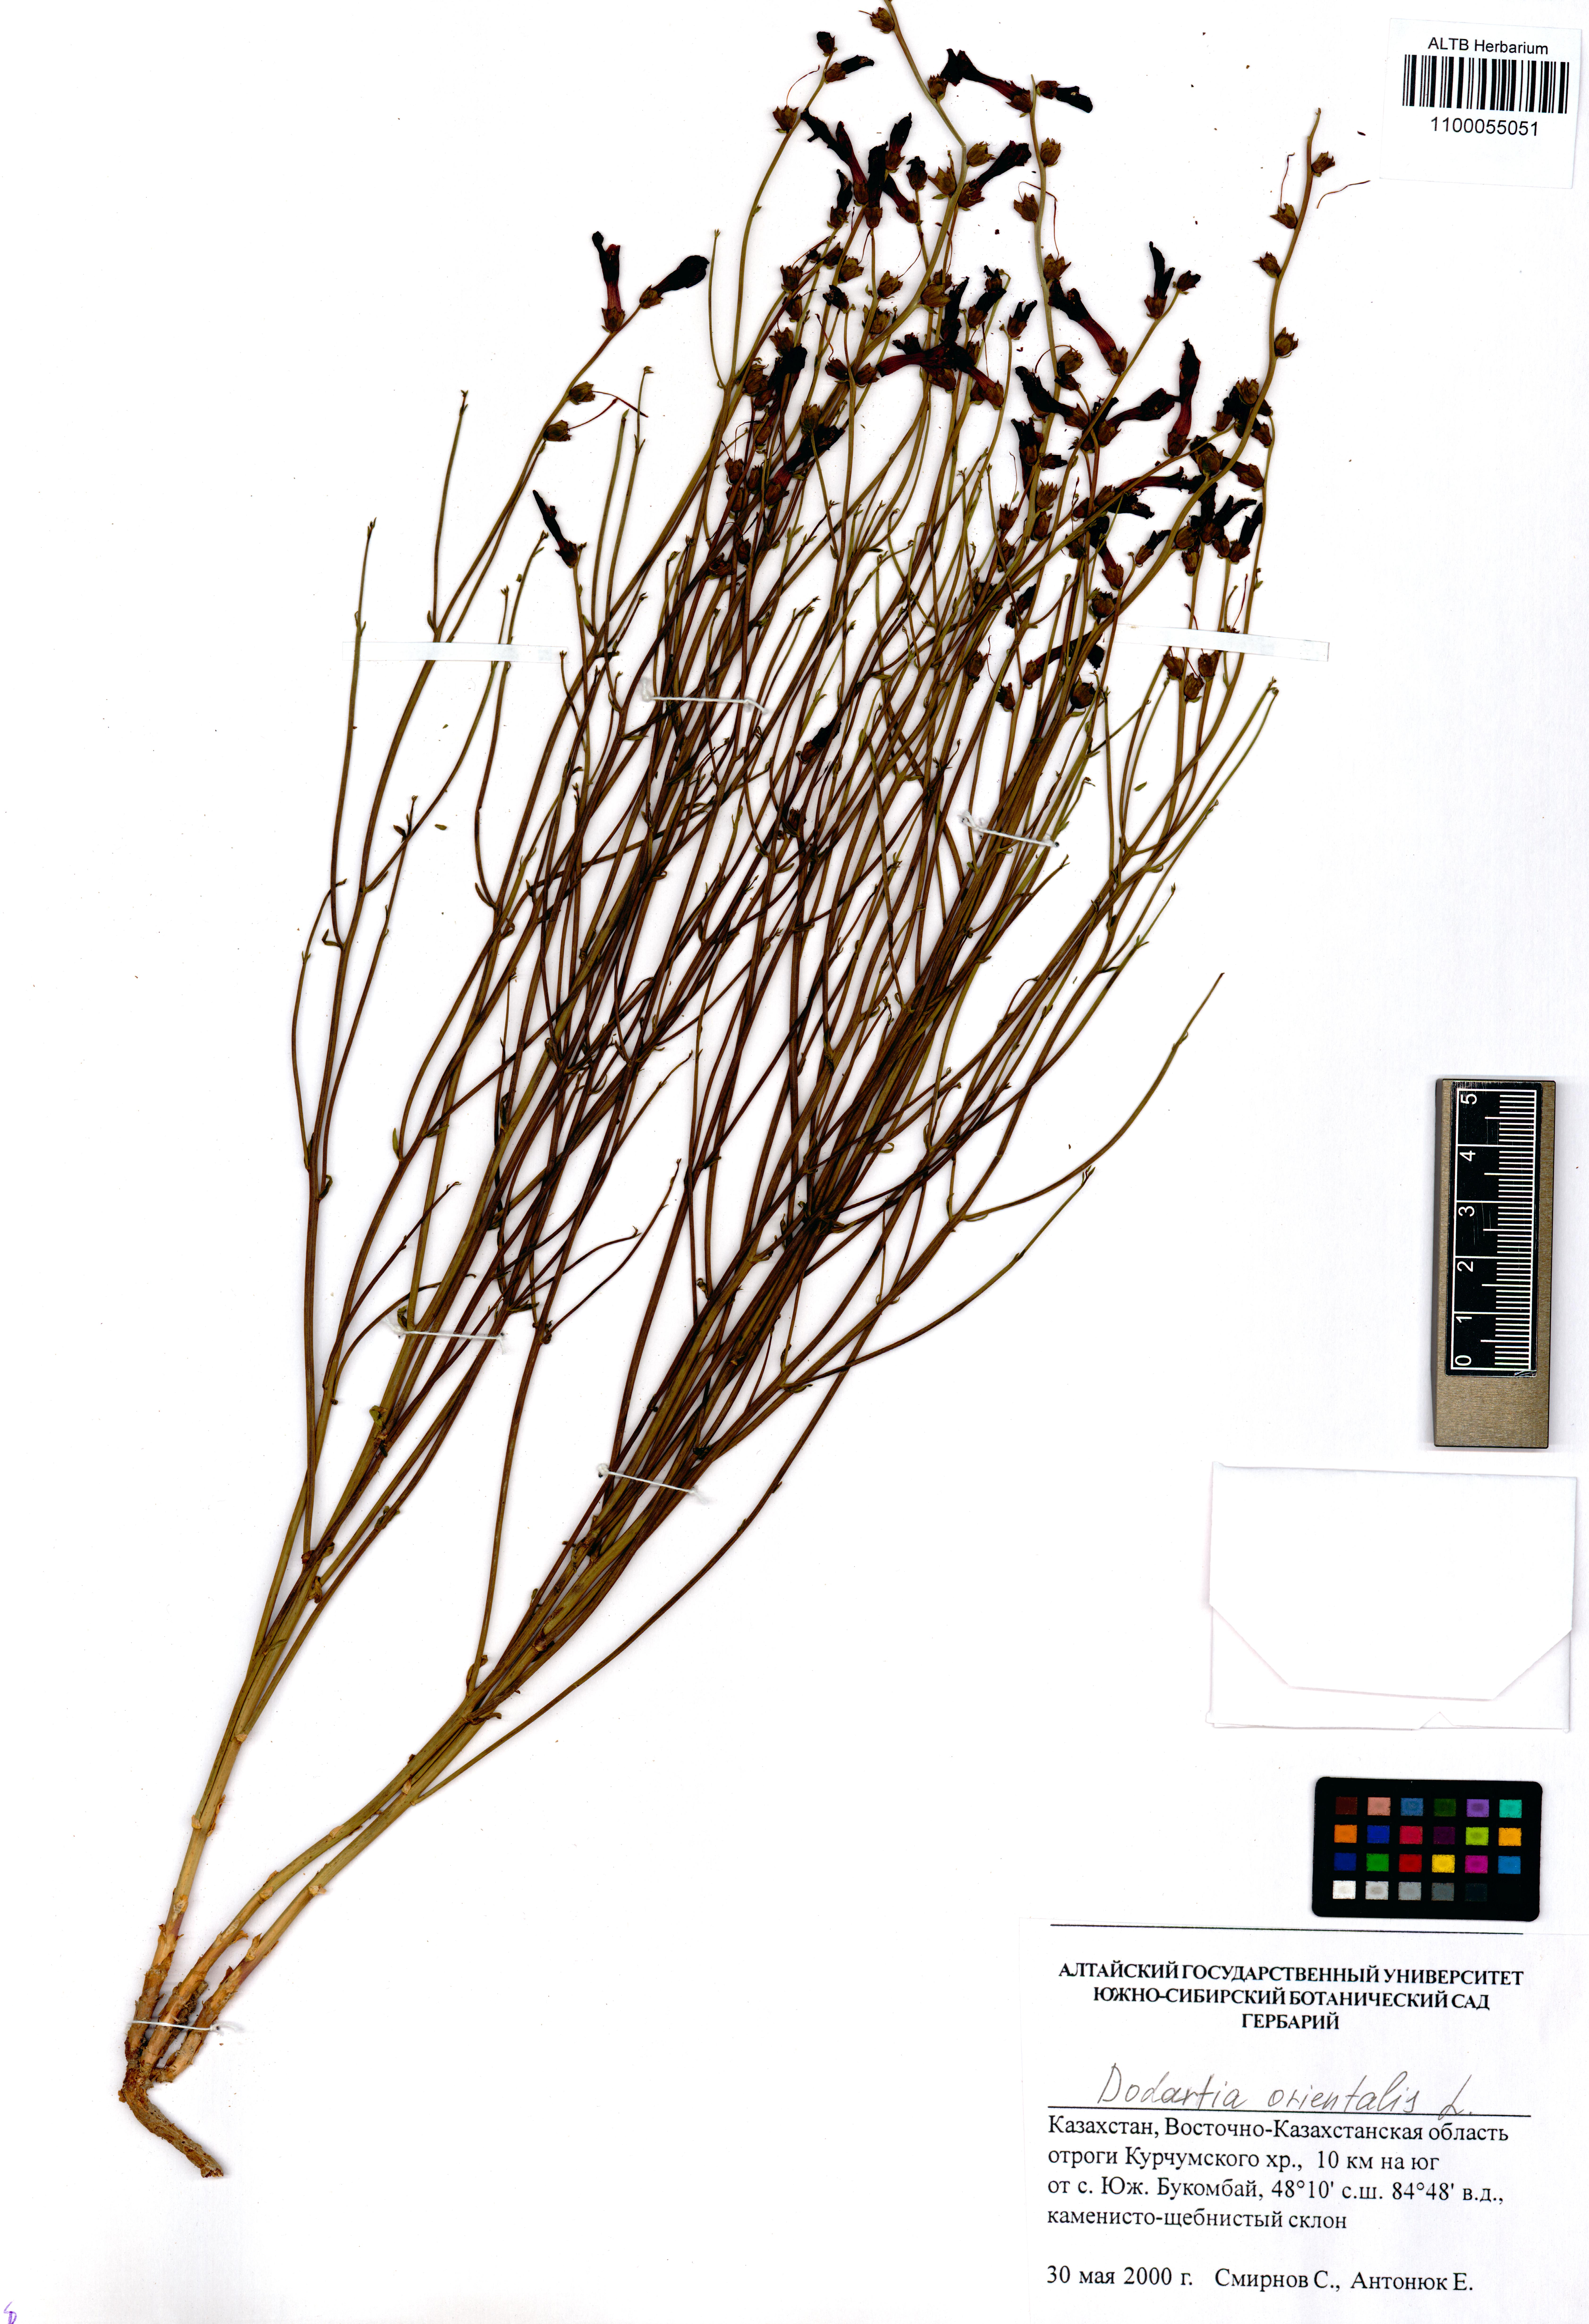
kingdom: Plantae
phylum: Tracheophyta
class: Magnoliopsida
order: Lamiales
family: Mazaceae
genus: Dodartia
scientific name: Dodartia orientalis
